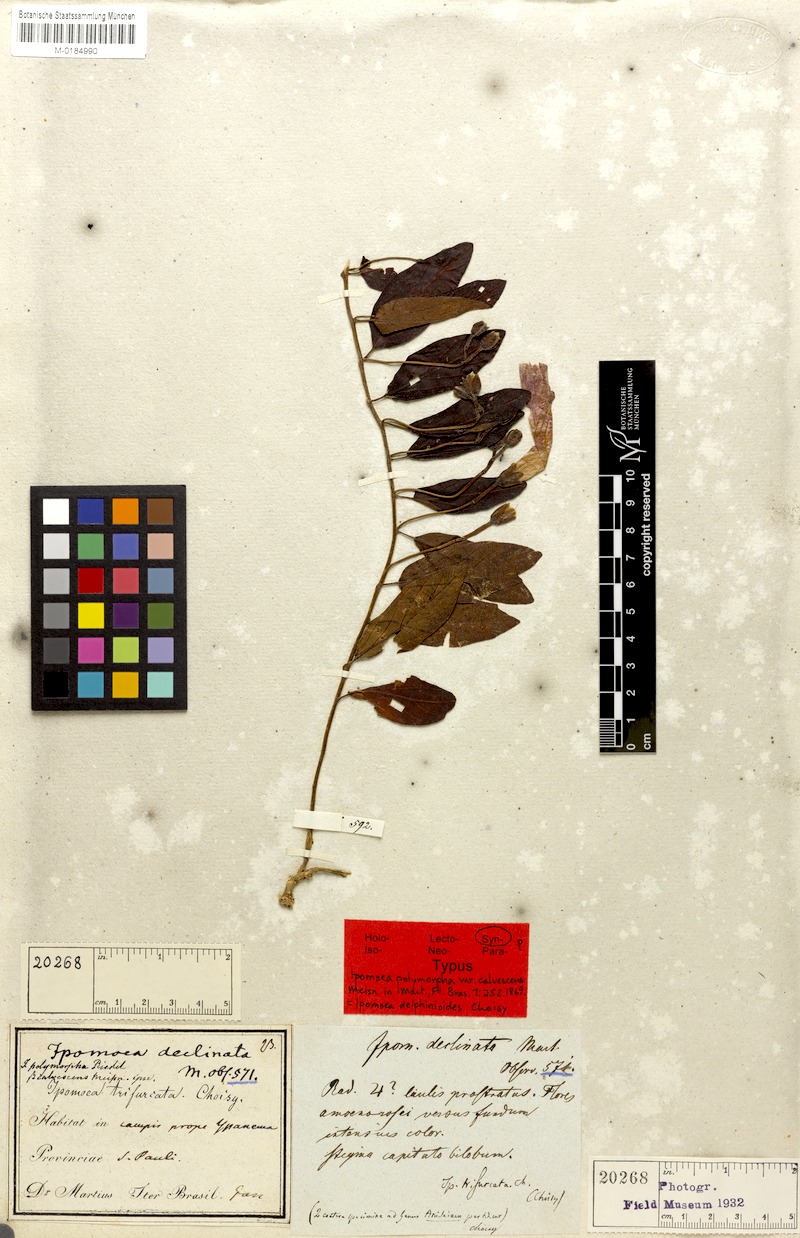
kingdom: Plantae
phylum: Tracheophyta
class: Magnoliopsida
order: Solanales
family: Convolvulaceae
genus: Ipomoea
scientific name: Ipomoea delphinioides
